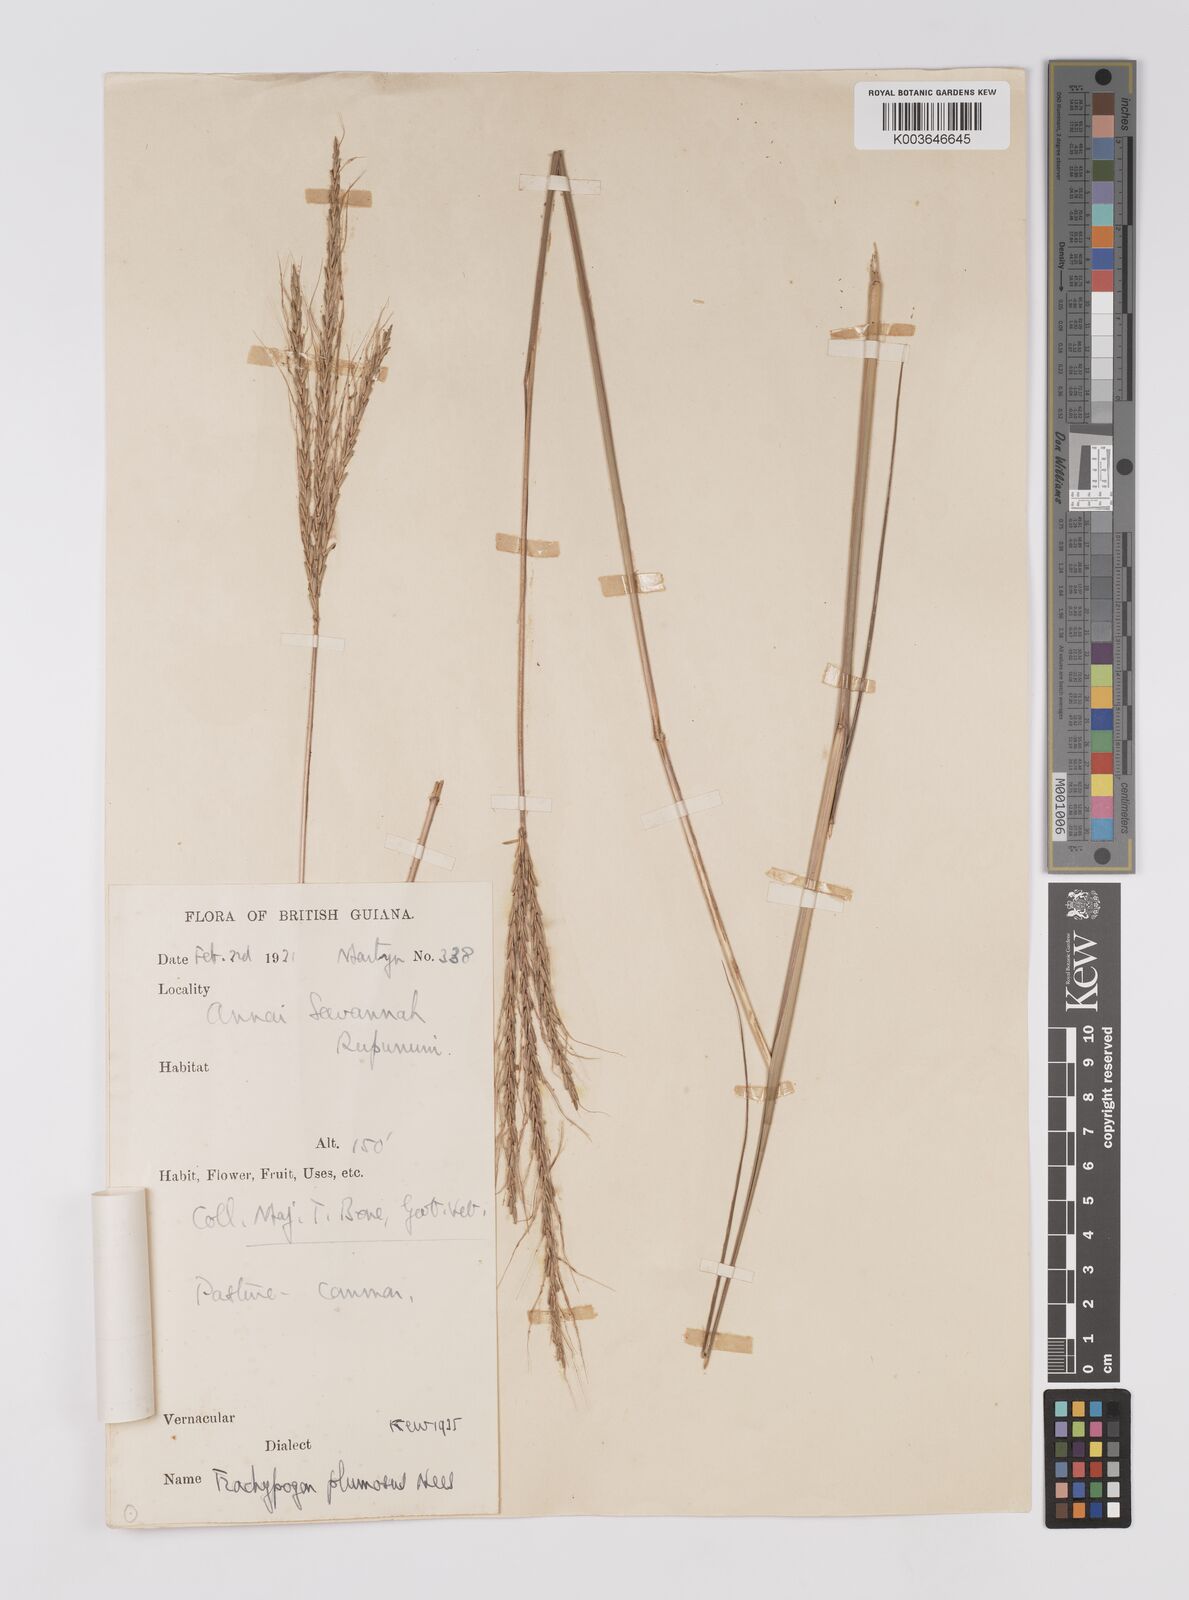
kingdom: Plantae
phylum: Tracheophyta
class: Liliopsida
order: Poales
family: Poaceae
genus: Trachypogon
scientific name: Trachypogon spicatus
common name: Crinkle-awn
